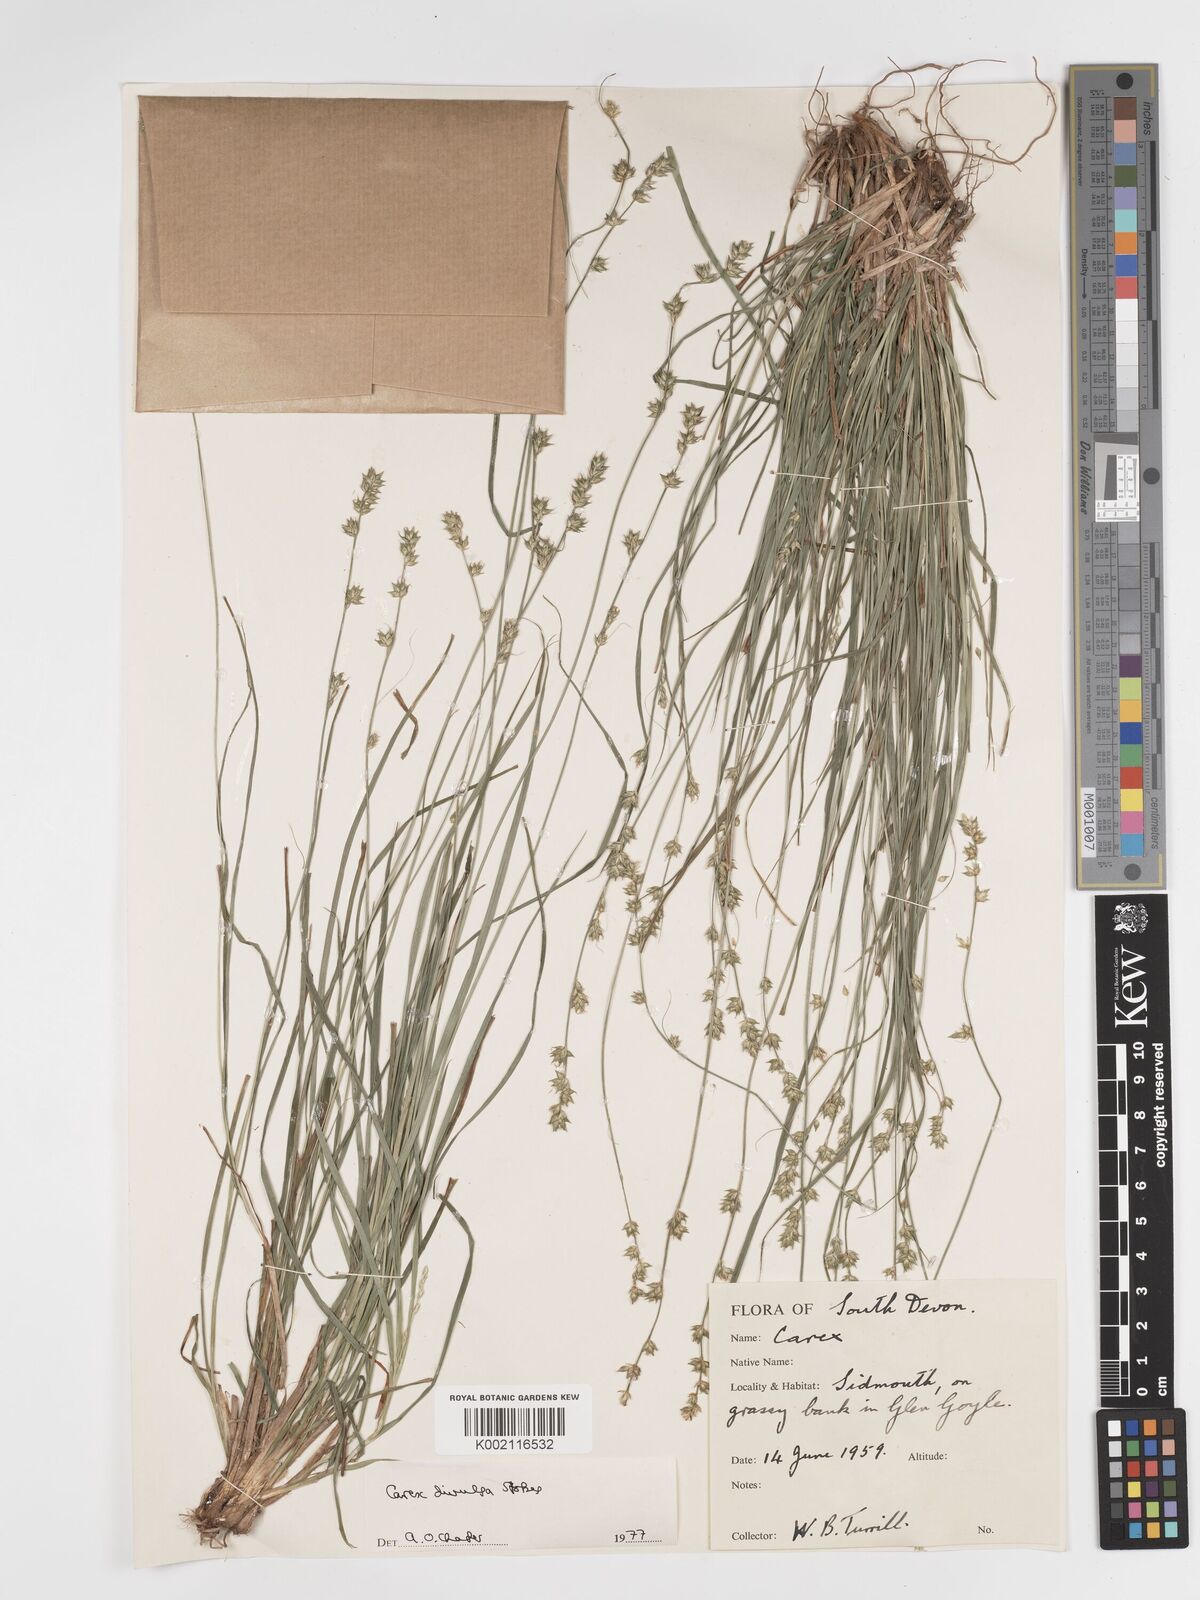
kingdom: Plantae
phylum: Tracheophyta
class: Liliopsida
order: Poales
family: Cyperaceae
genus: Carex
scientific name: Carex divulsa
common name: Grassland sedge
